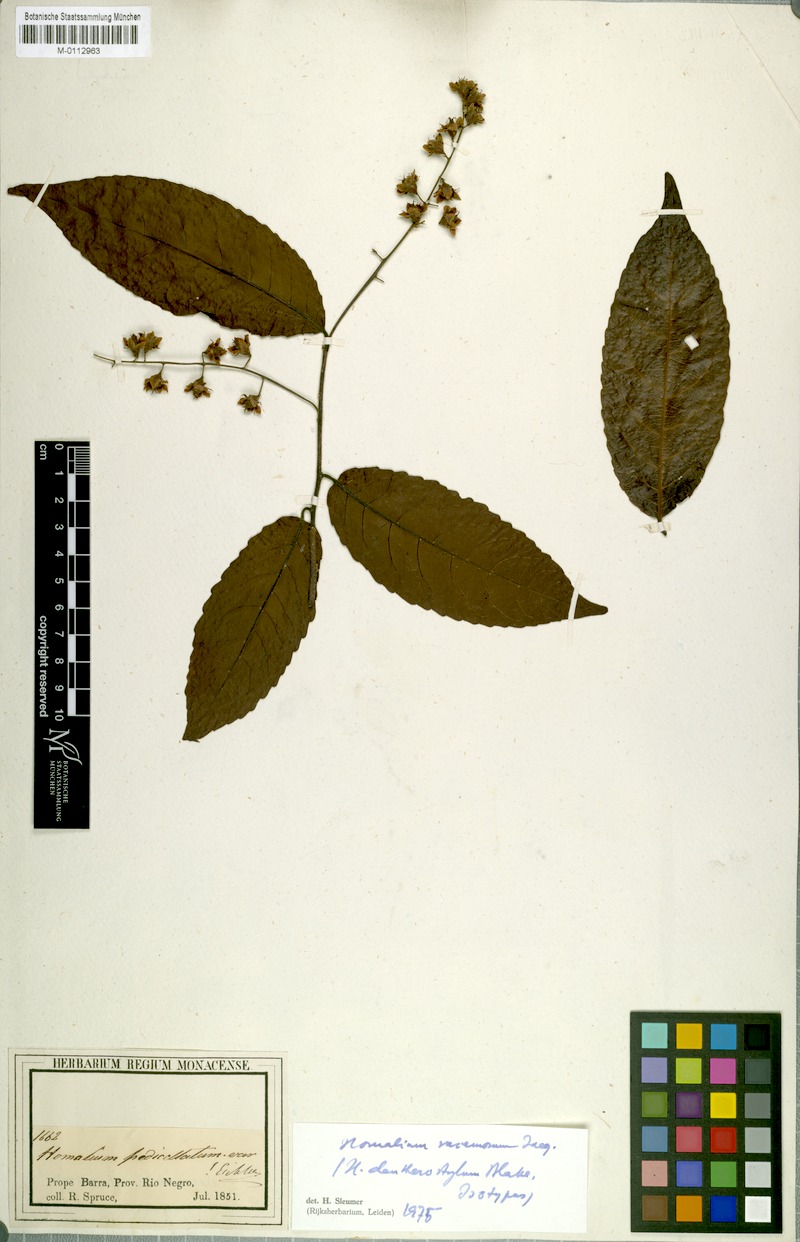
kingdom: Plantae
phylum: Tracheophyta
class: Magnoliopsida
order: Malpighiales
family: Salicaceae
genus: Homalium
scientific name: Homalium racemosum
